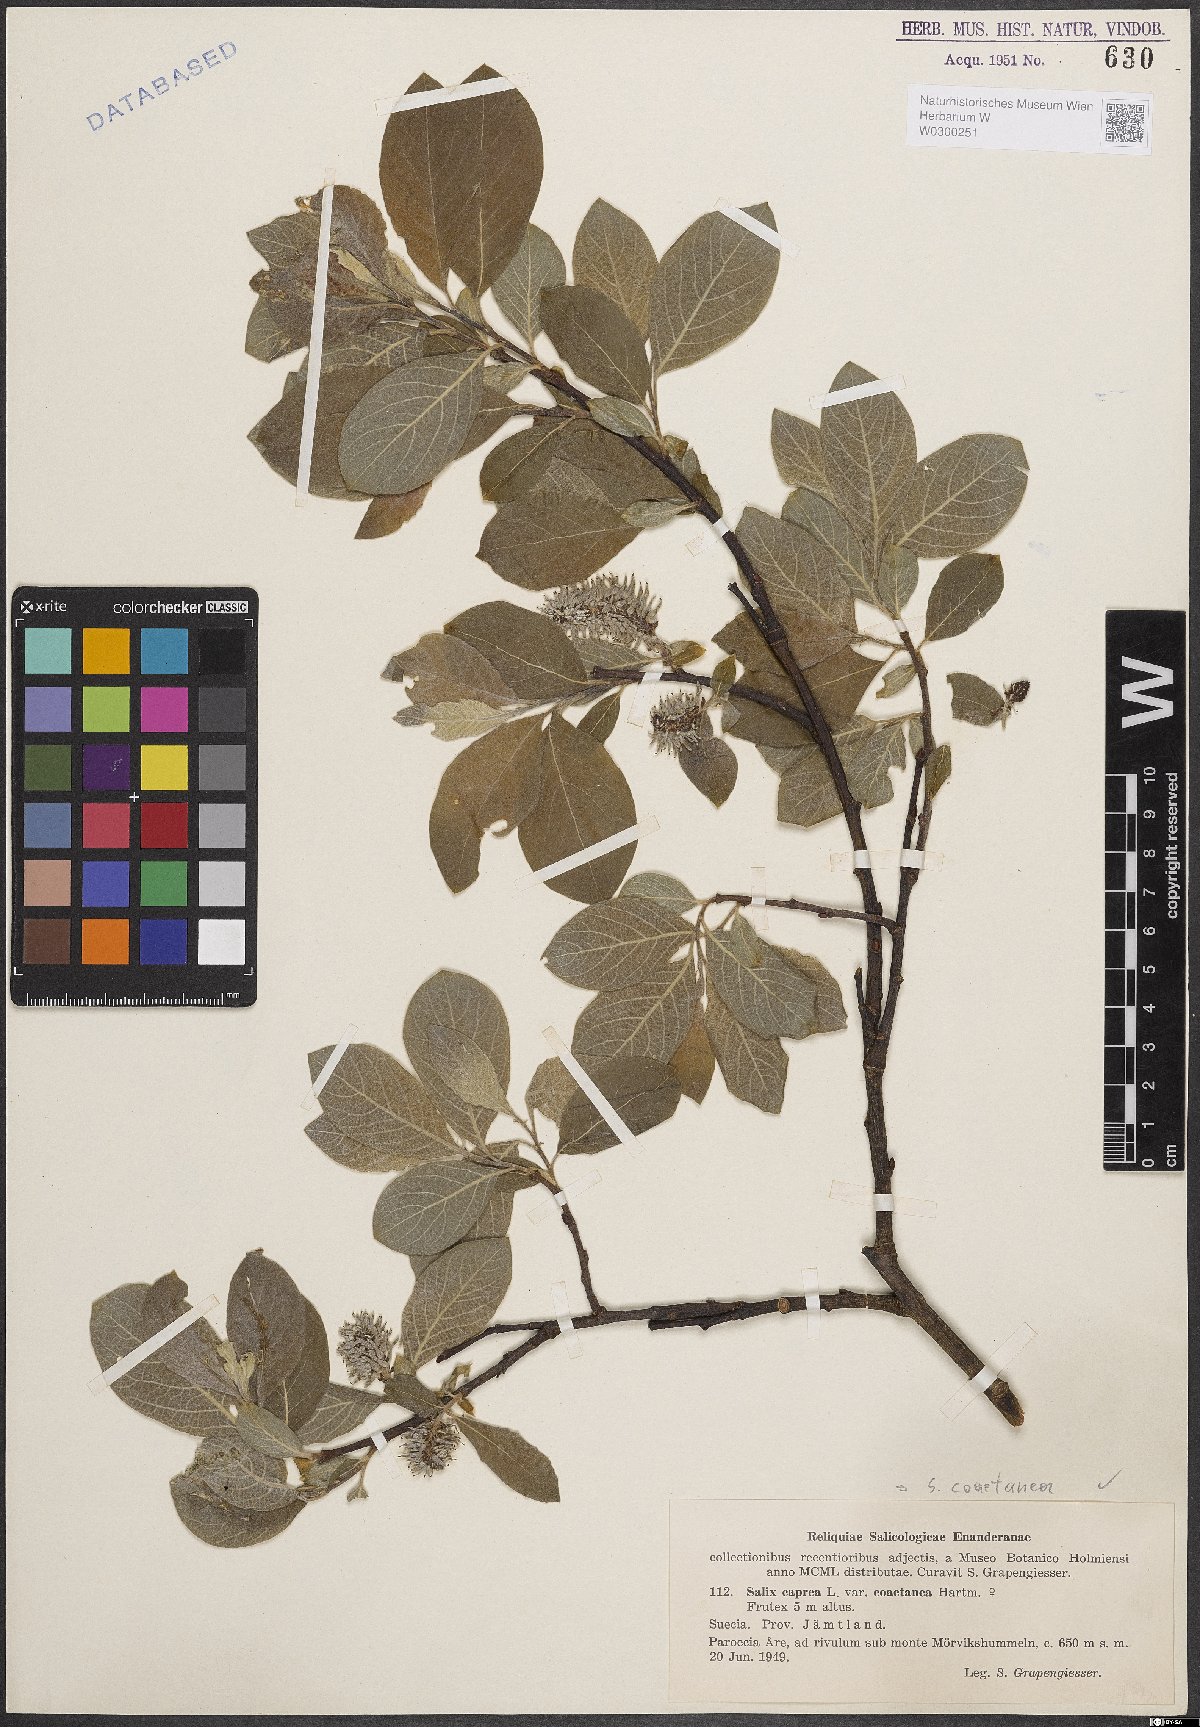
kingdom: Plantae
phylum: Tracheophyta
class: Magnoliopsida
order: Malpighiales
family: Salicaceae
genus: Salix
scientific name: Salix caprea
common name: Goat willow
